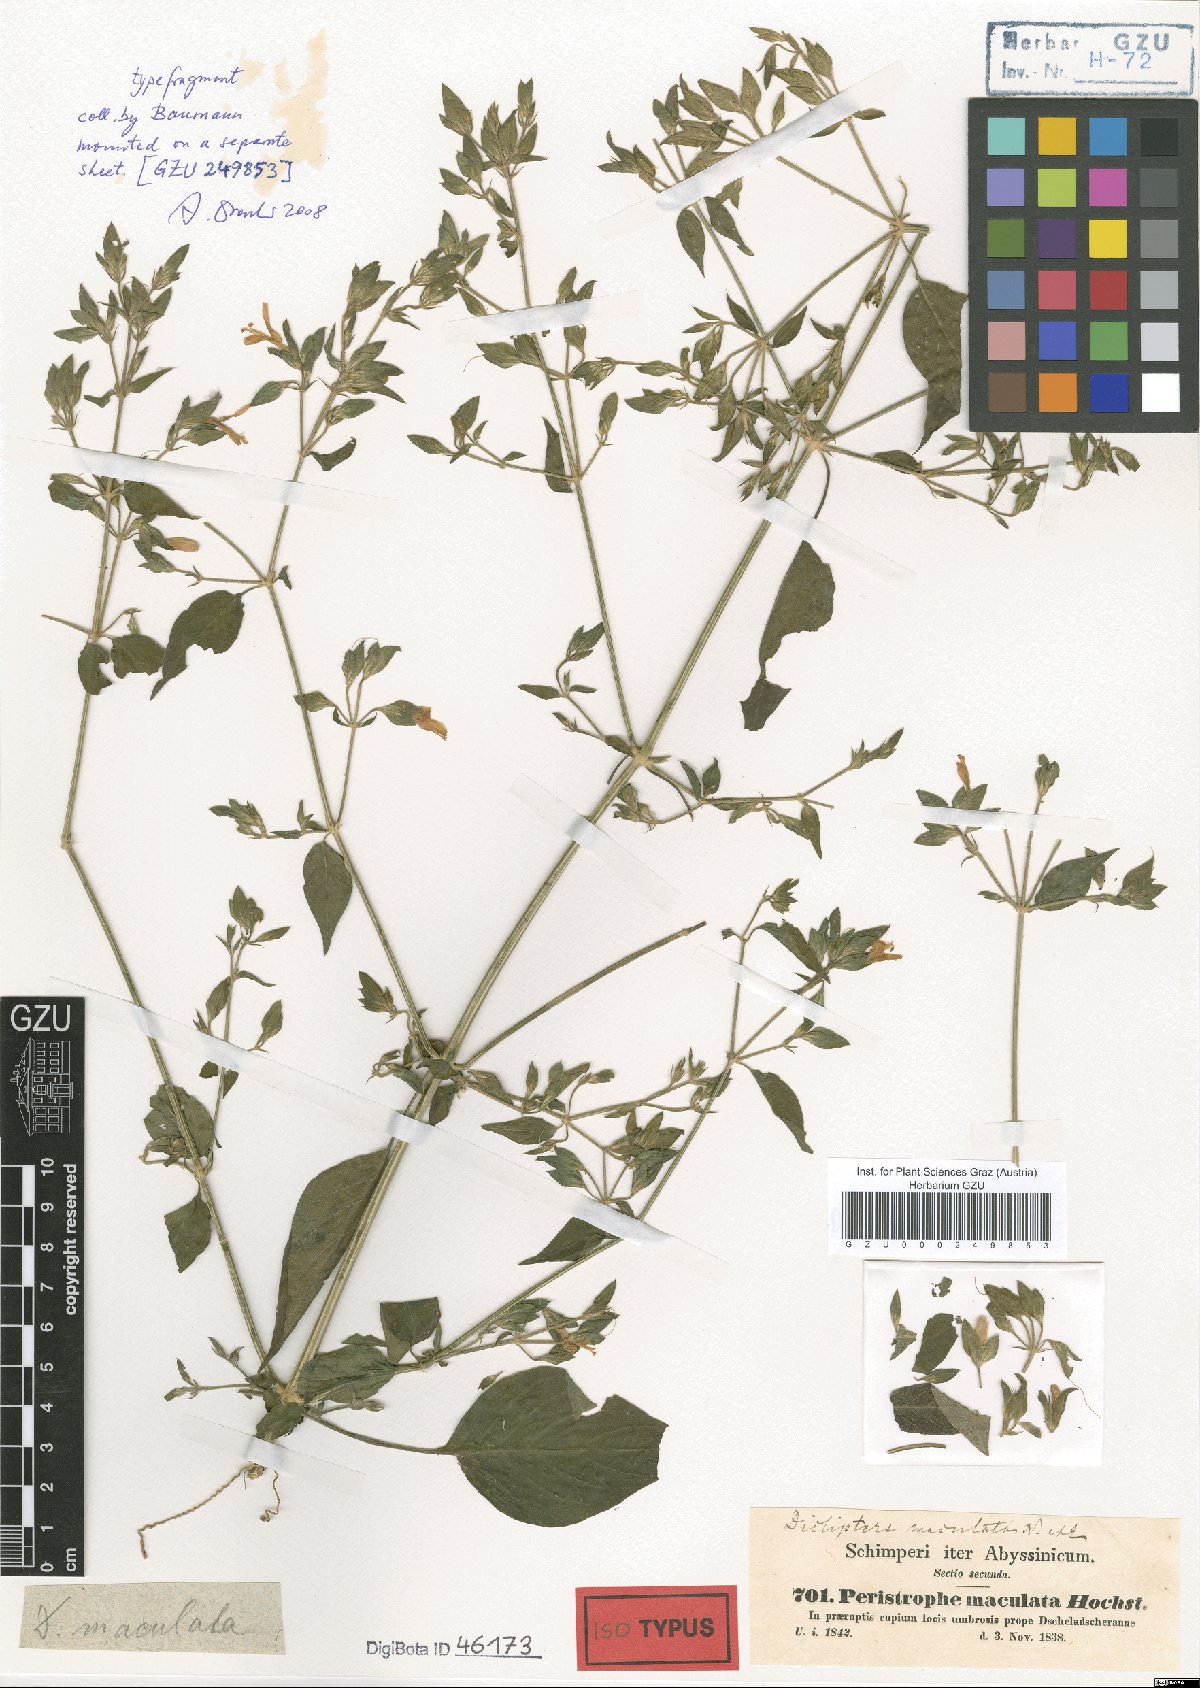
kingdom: Plantae
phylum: Tracheophyta
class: Magnoliopsida
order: Lamiales
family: Acanthaceae
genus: Dicliptera
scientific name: Dicliptera maculata
